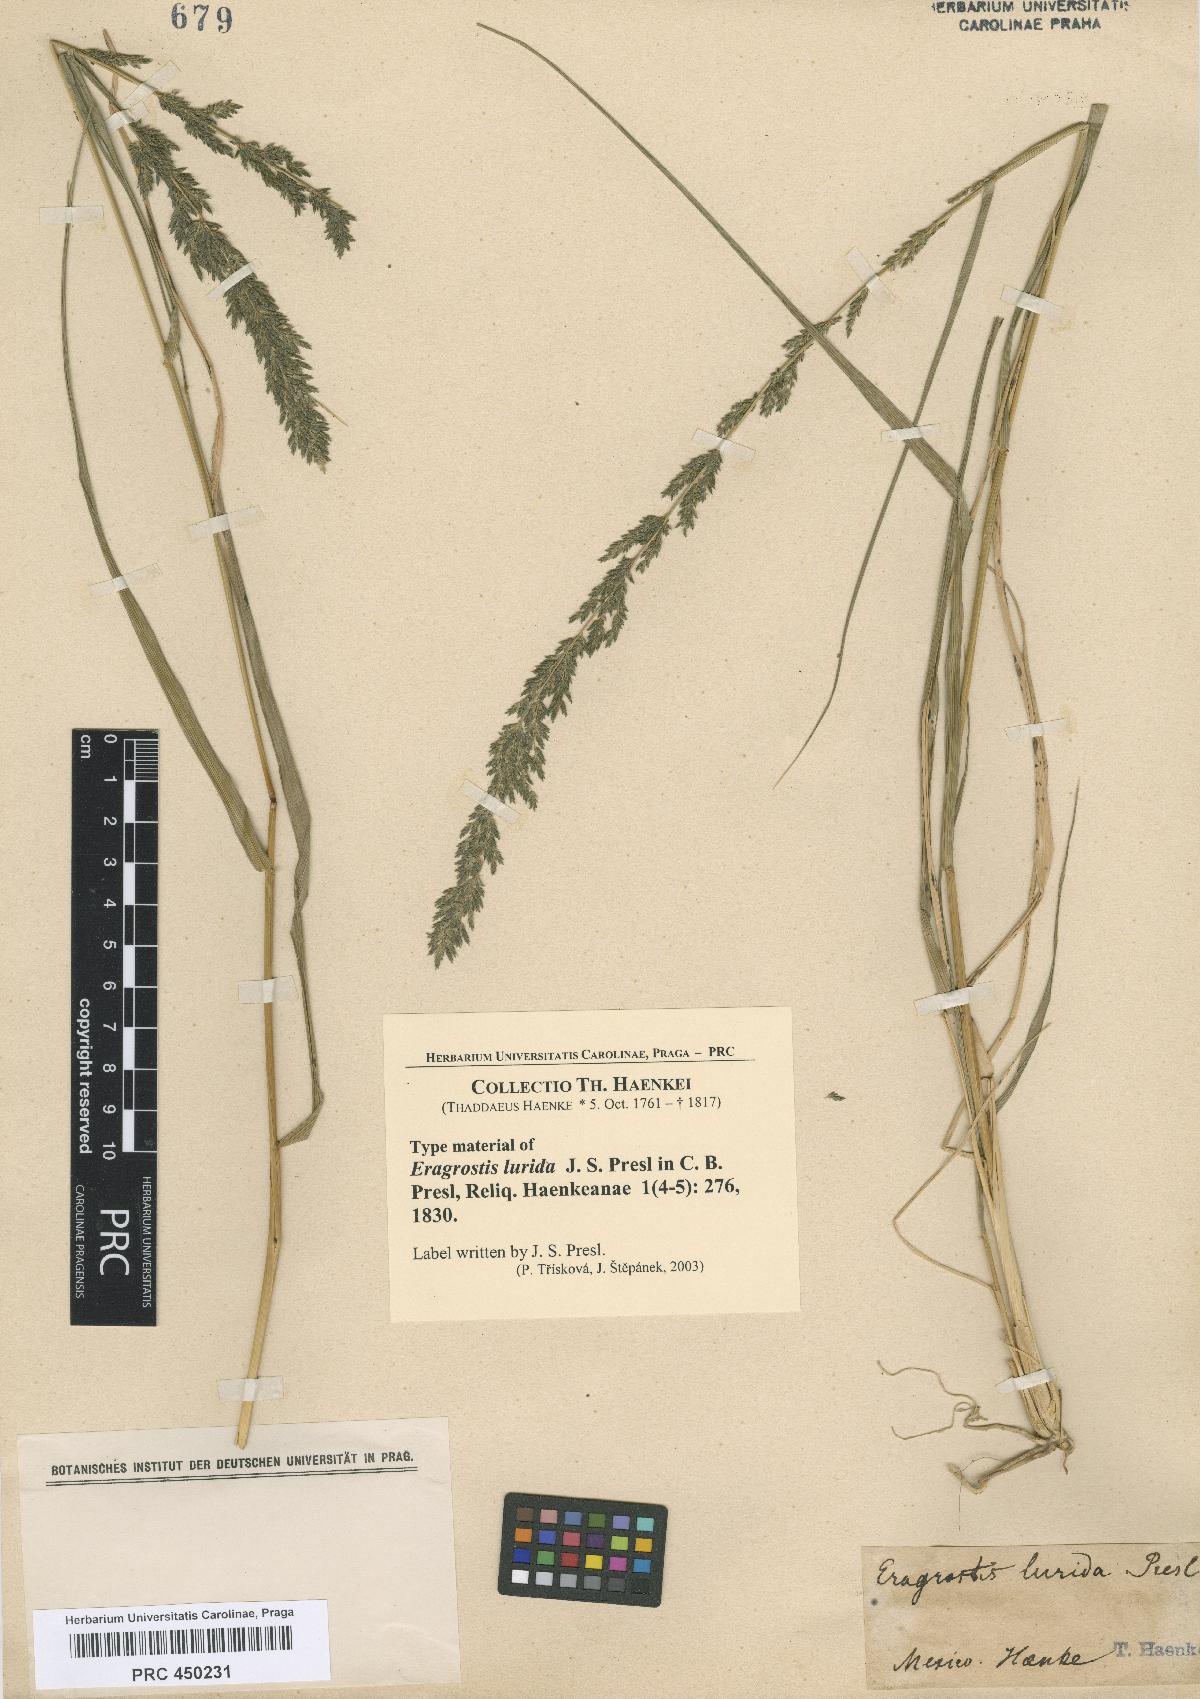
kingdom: Plantae
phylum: Tracheophyta
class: Liliopsida
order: Poales
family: Poaceae
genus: Eragrostis
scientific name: Eragrostis lurida
